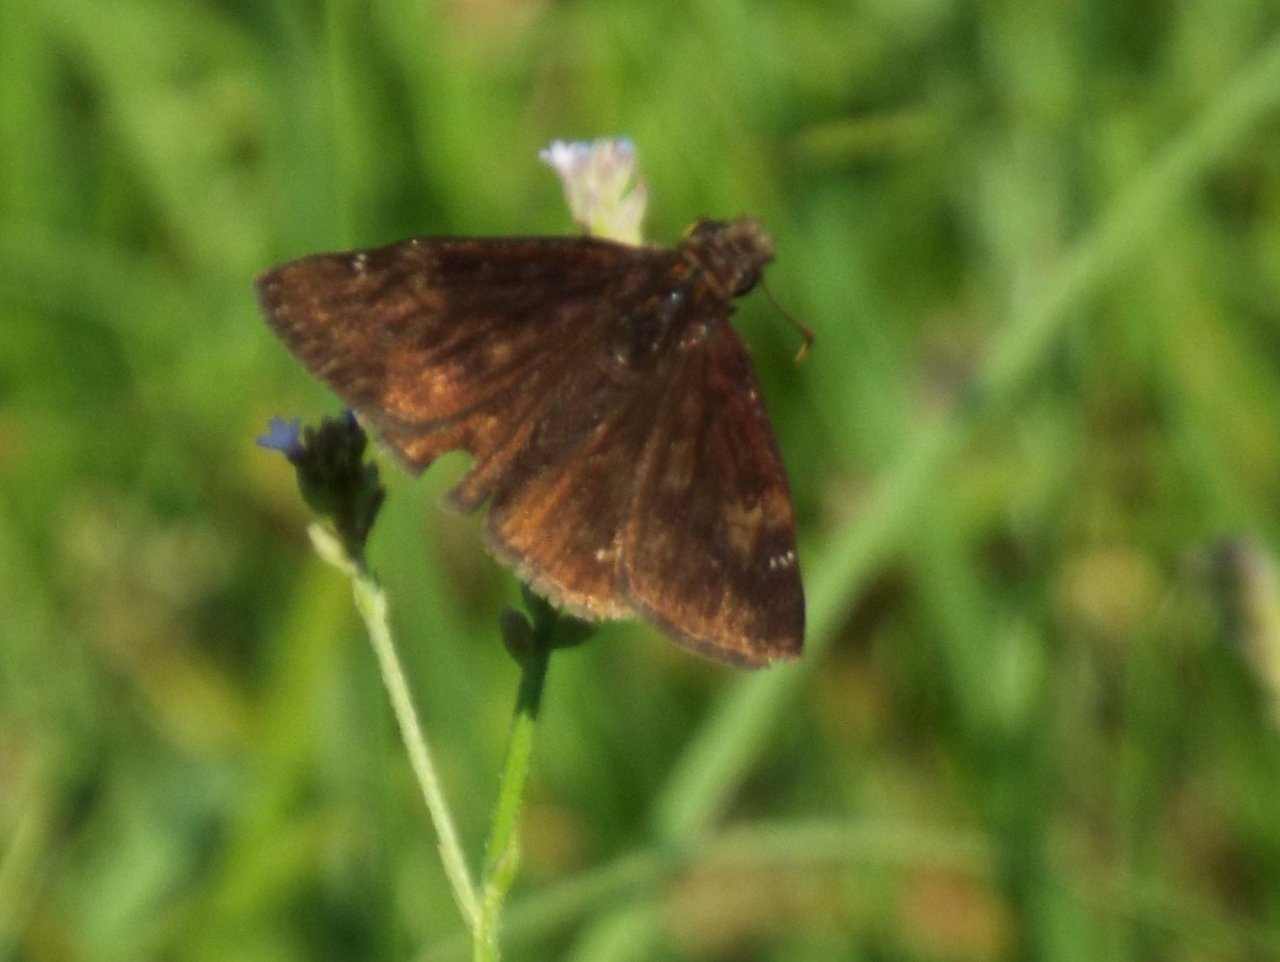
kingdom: Animalia
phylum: Arthropoda
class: Insecta
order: Lepidoptera
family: Hesperiidae
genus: Erynnis
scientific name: Erynnis zarucco
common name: Zarucco Duskywing
